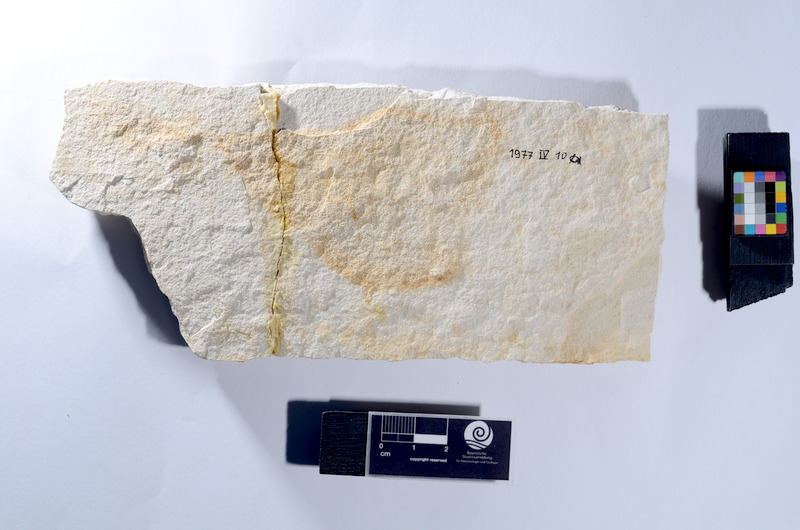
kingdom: Animalia
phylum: Chordata
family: Aspidorhynchidae
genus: Belonostomus
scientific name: Belonostomus
